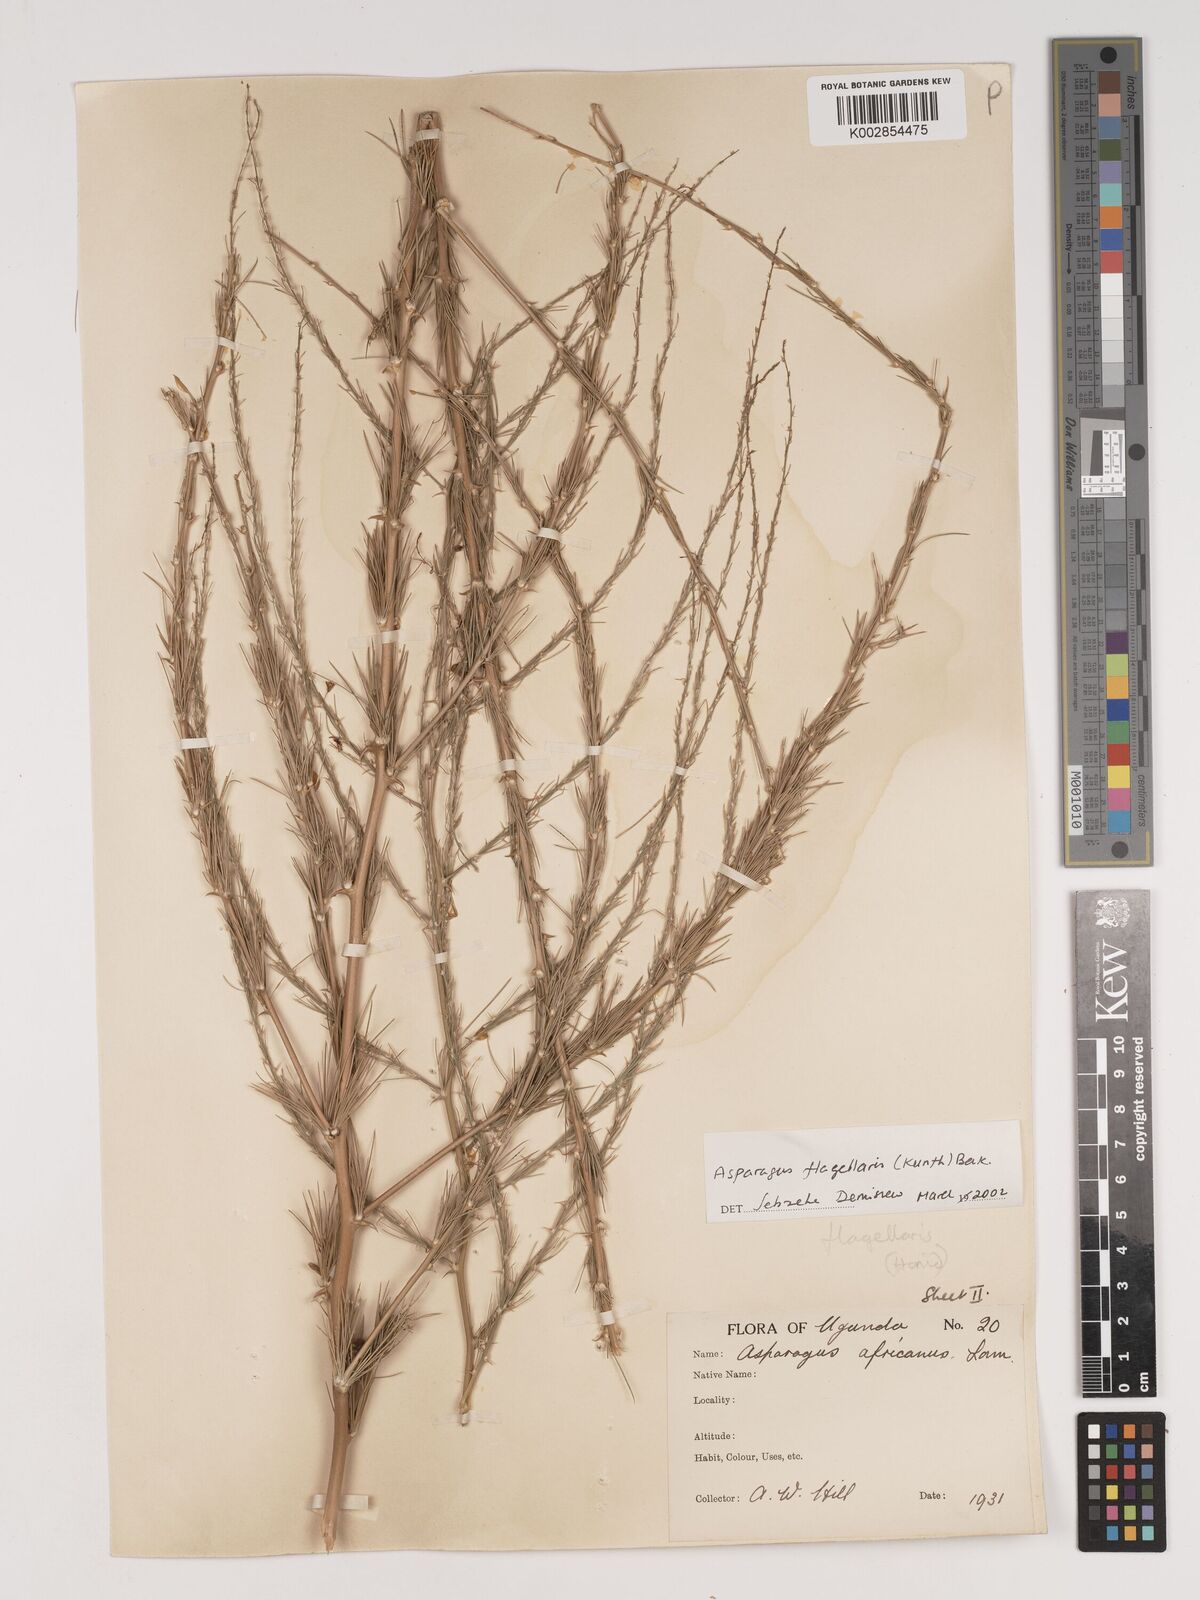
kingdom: Plantae
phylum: Tracheophyta
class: Liliopsida
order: Asparagales
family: Asparagaceae
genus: Asparagus
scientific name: Asparagus flagellaris
